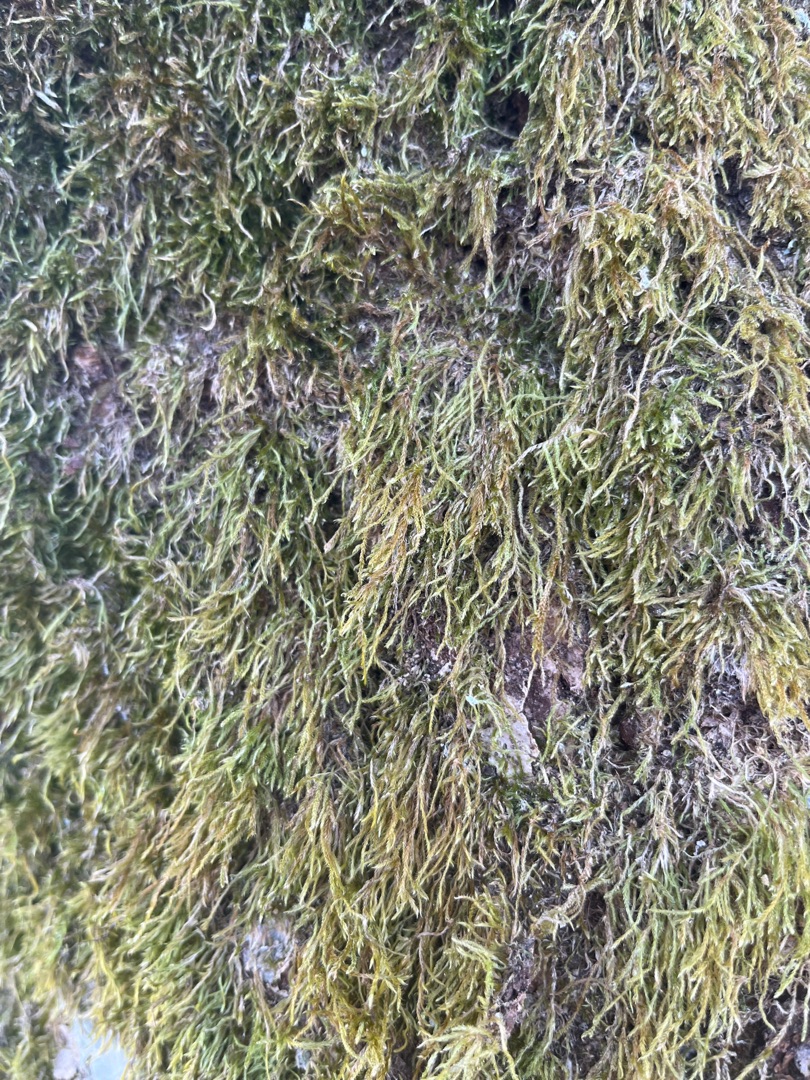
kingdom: Plantae
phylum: Bryophyta
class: Bryopsida
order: Hypnales
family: Hypnaceae
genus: Hypnum
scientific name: Hypnum
